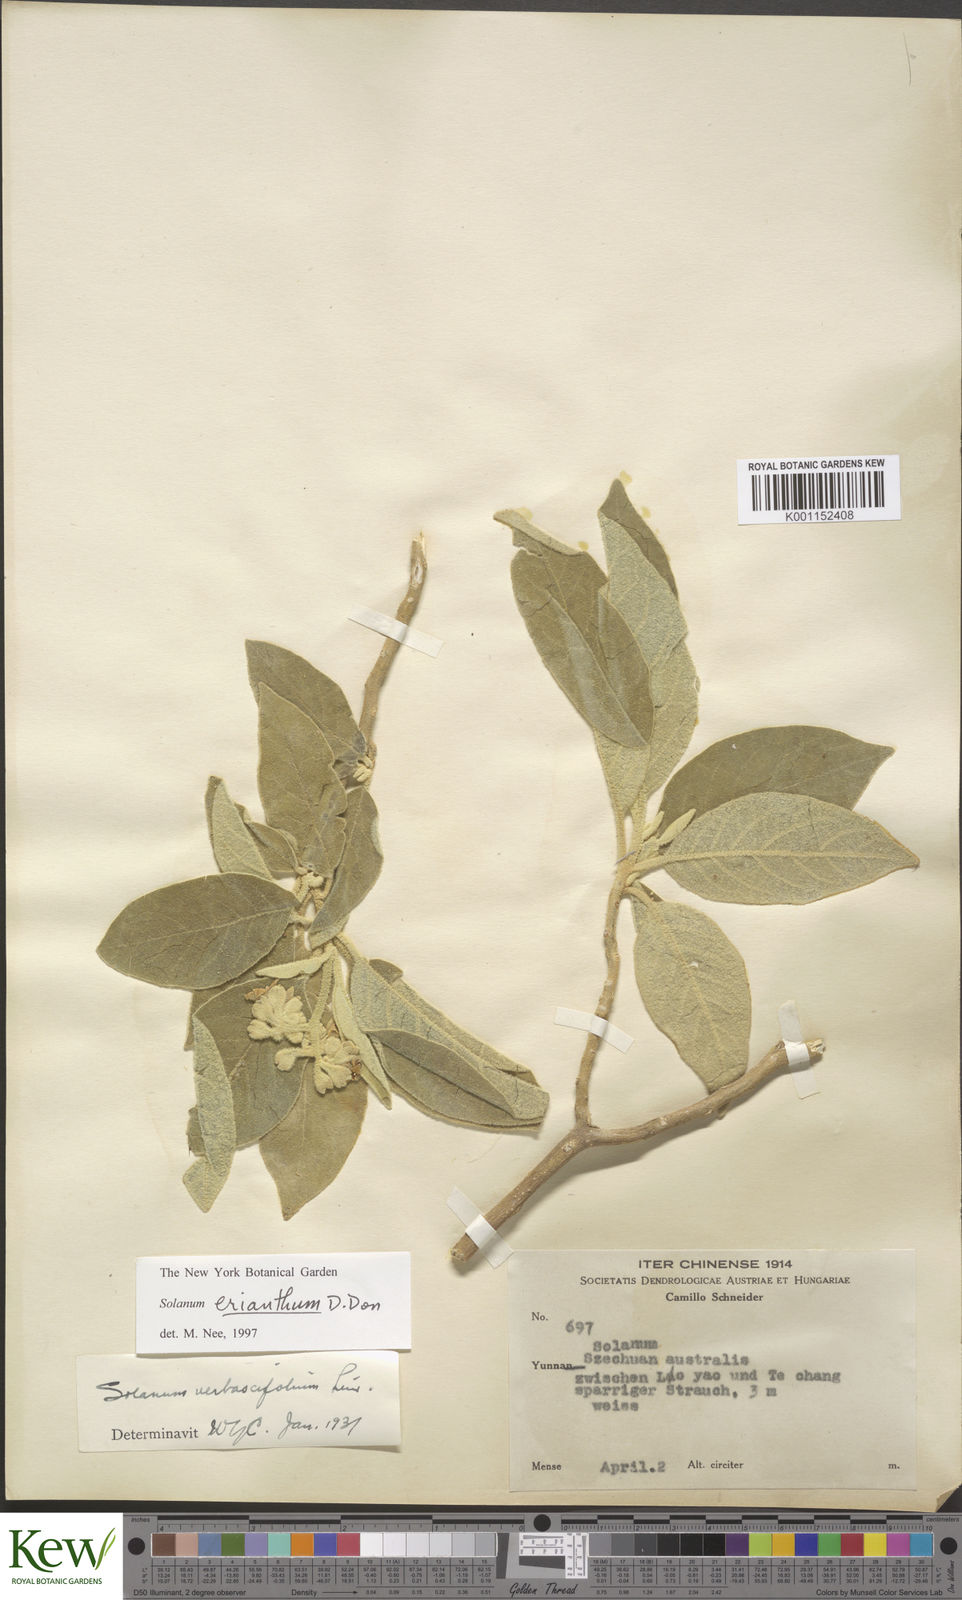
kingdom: Plantae
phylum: Tracheophyta
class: Magnoliopsida
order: Solanales
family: Solanaceae
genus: Solanum
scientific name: Solanum donianum
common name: Mullein nightshade
